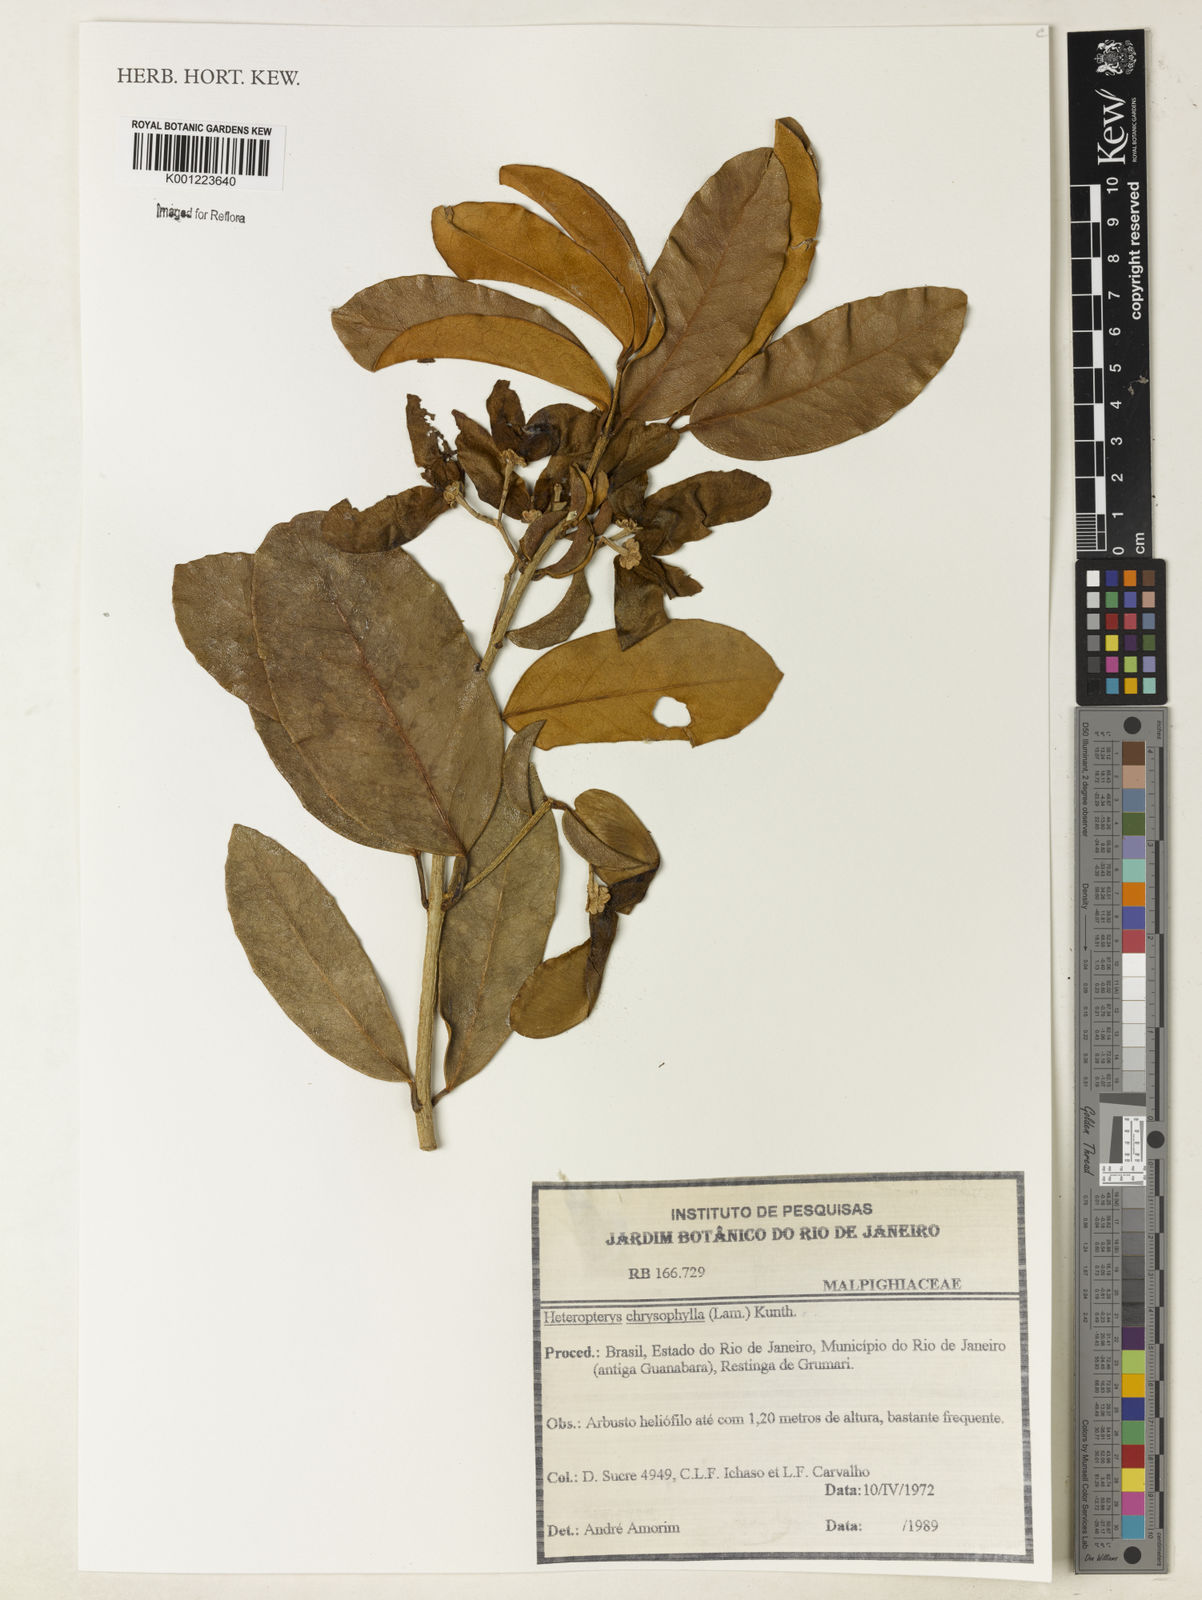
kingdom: Plantae
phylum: Tracheophyta
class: Magnoliopsida
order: Malpighiales
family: Malpighiaceae
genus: Heteropterys
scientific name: Heteropterys chrysophylla
